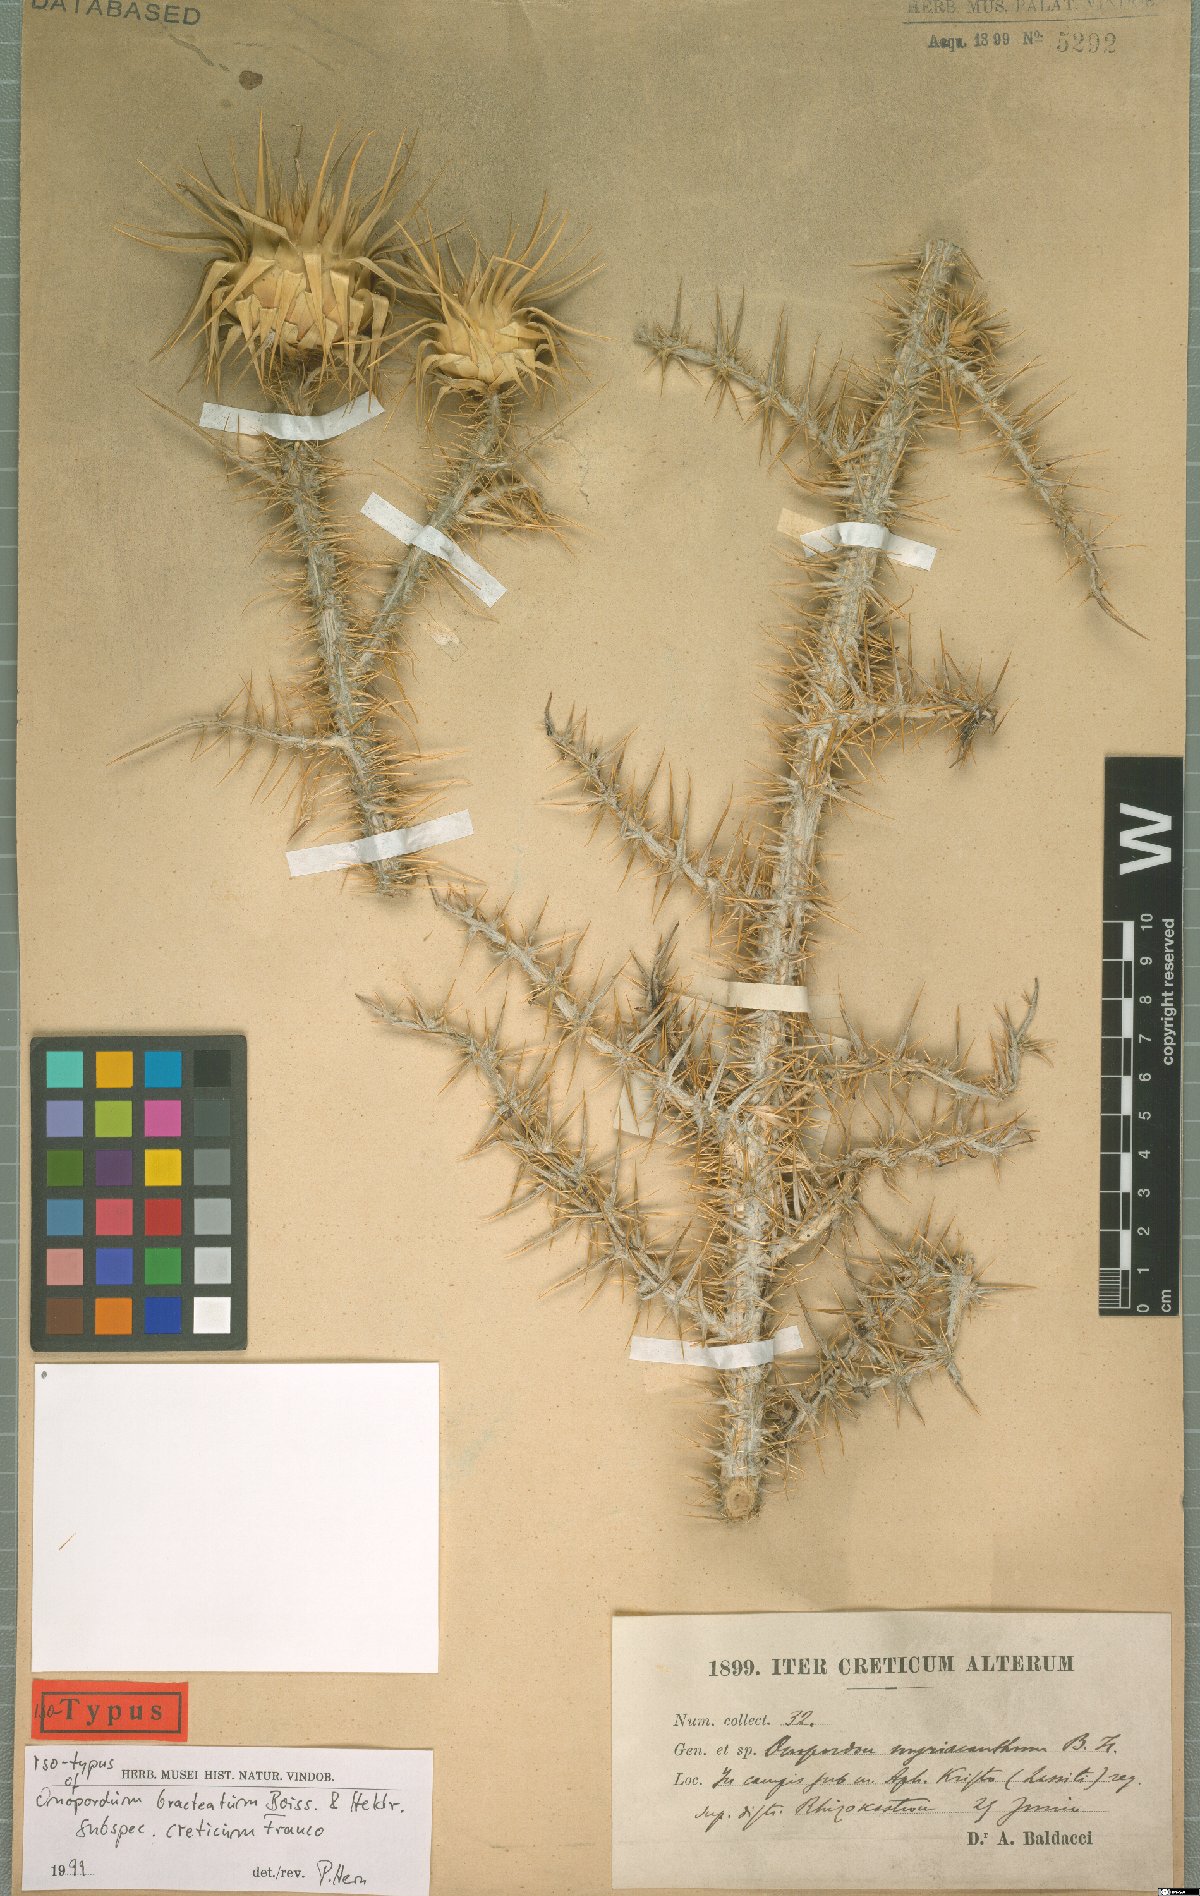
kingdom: Plantae
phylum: Tracheophyta
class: Magnoliopsida
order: Asterales
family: Asteraceae
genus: Onopordum
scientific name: Onopordum bracteatum
